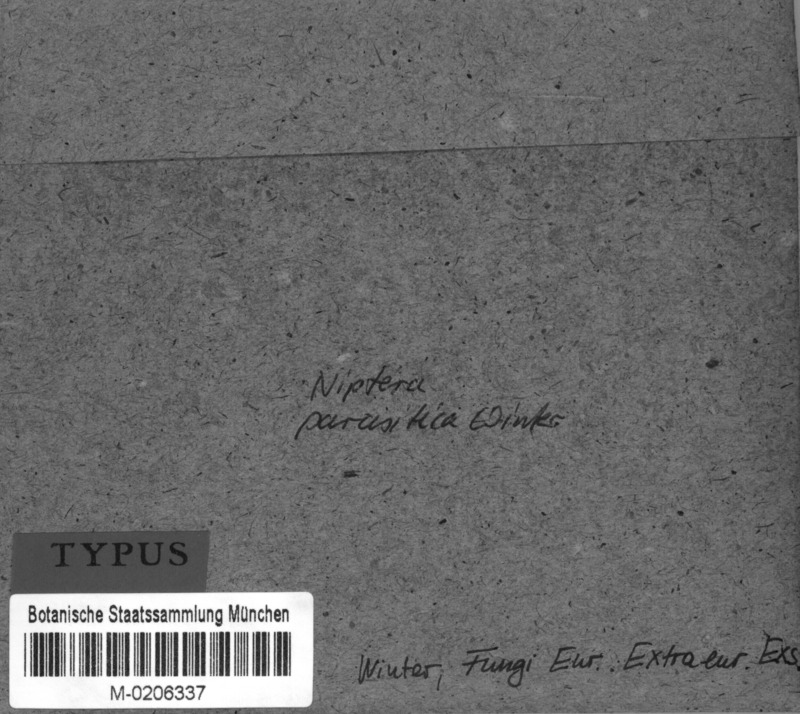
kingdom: Fungi
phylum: Ascomycota
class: Leotiomycetes
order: Helotiales
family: Mollisiaceae
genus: Niptera
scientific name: Niptera parasitica
